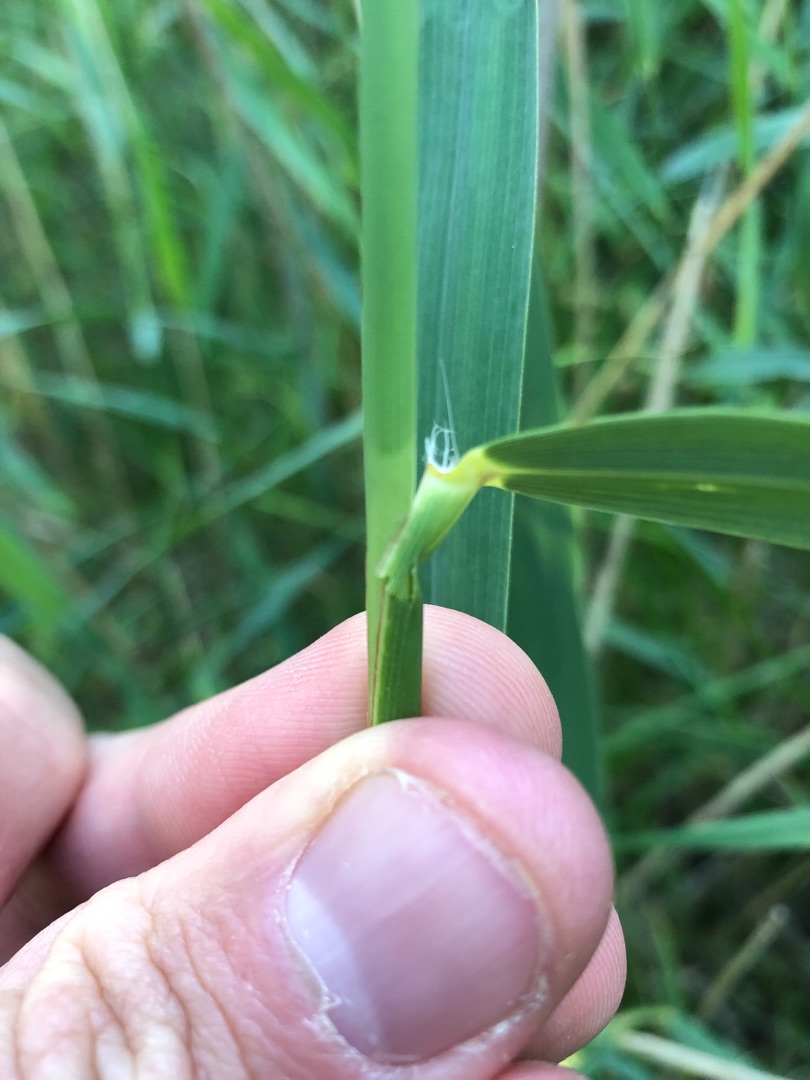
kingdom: Plantae
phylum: Tracheophyta
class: Liliopsida
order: Poales
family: Poaceae
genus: Phragmites
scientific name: Phragmites australis
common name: Tagrør
